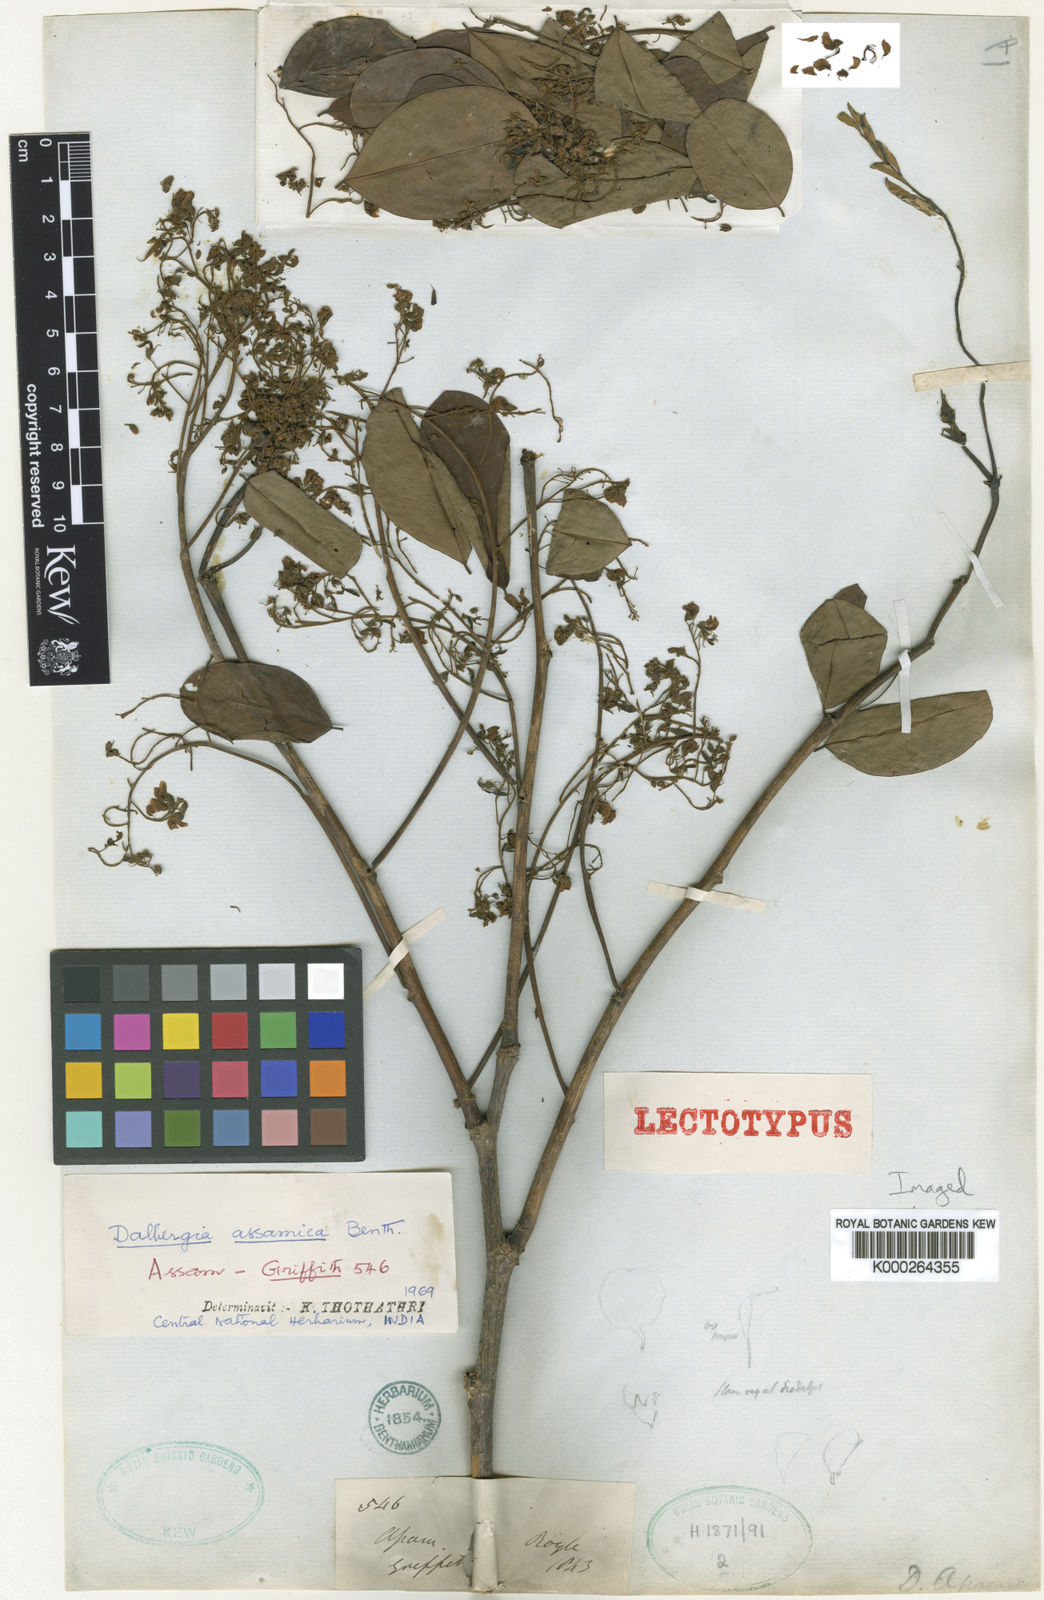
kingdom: Plantae
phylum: Tracheophyta
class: Magnoliopsida
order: Fabales
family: Fabaceae
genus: Dalbergia
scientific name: Dalbergia assamica
